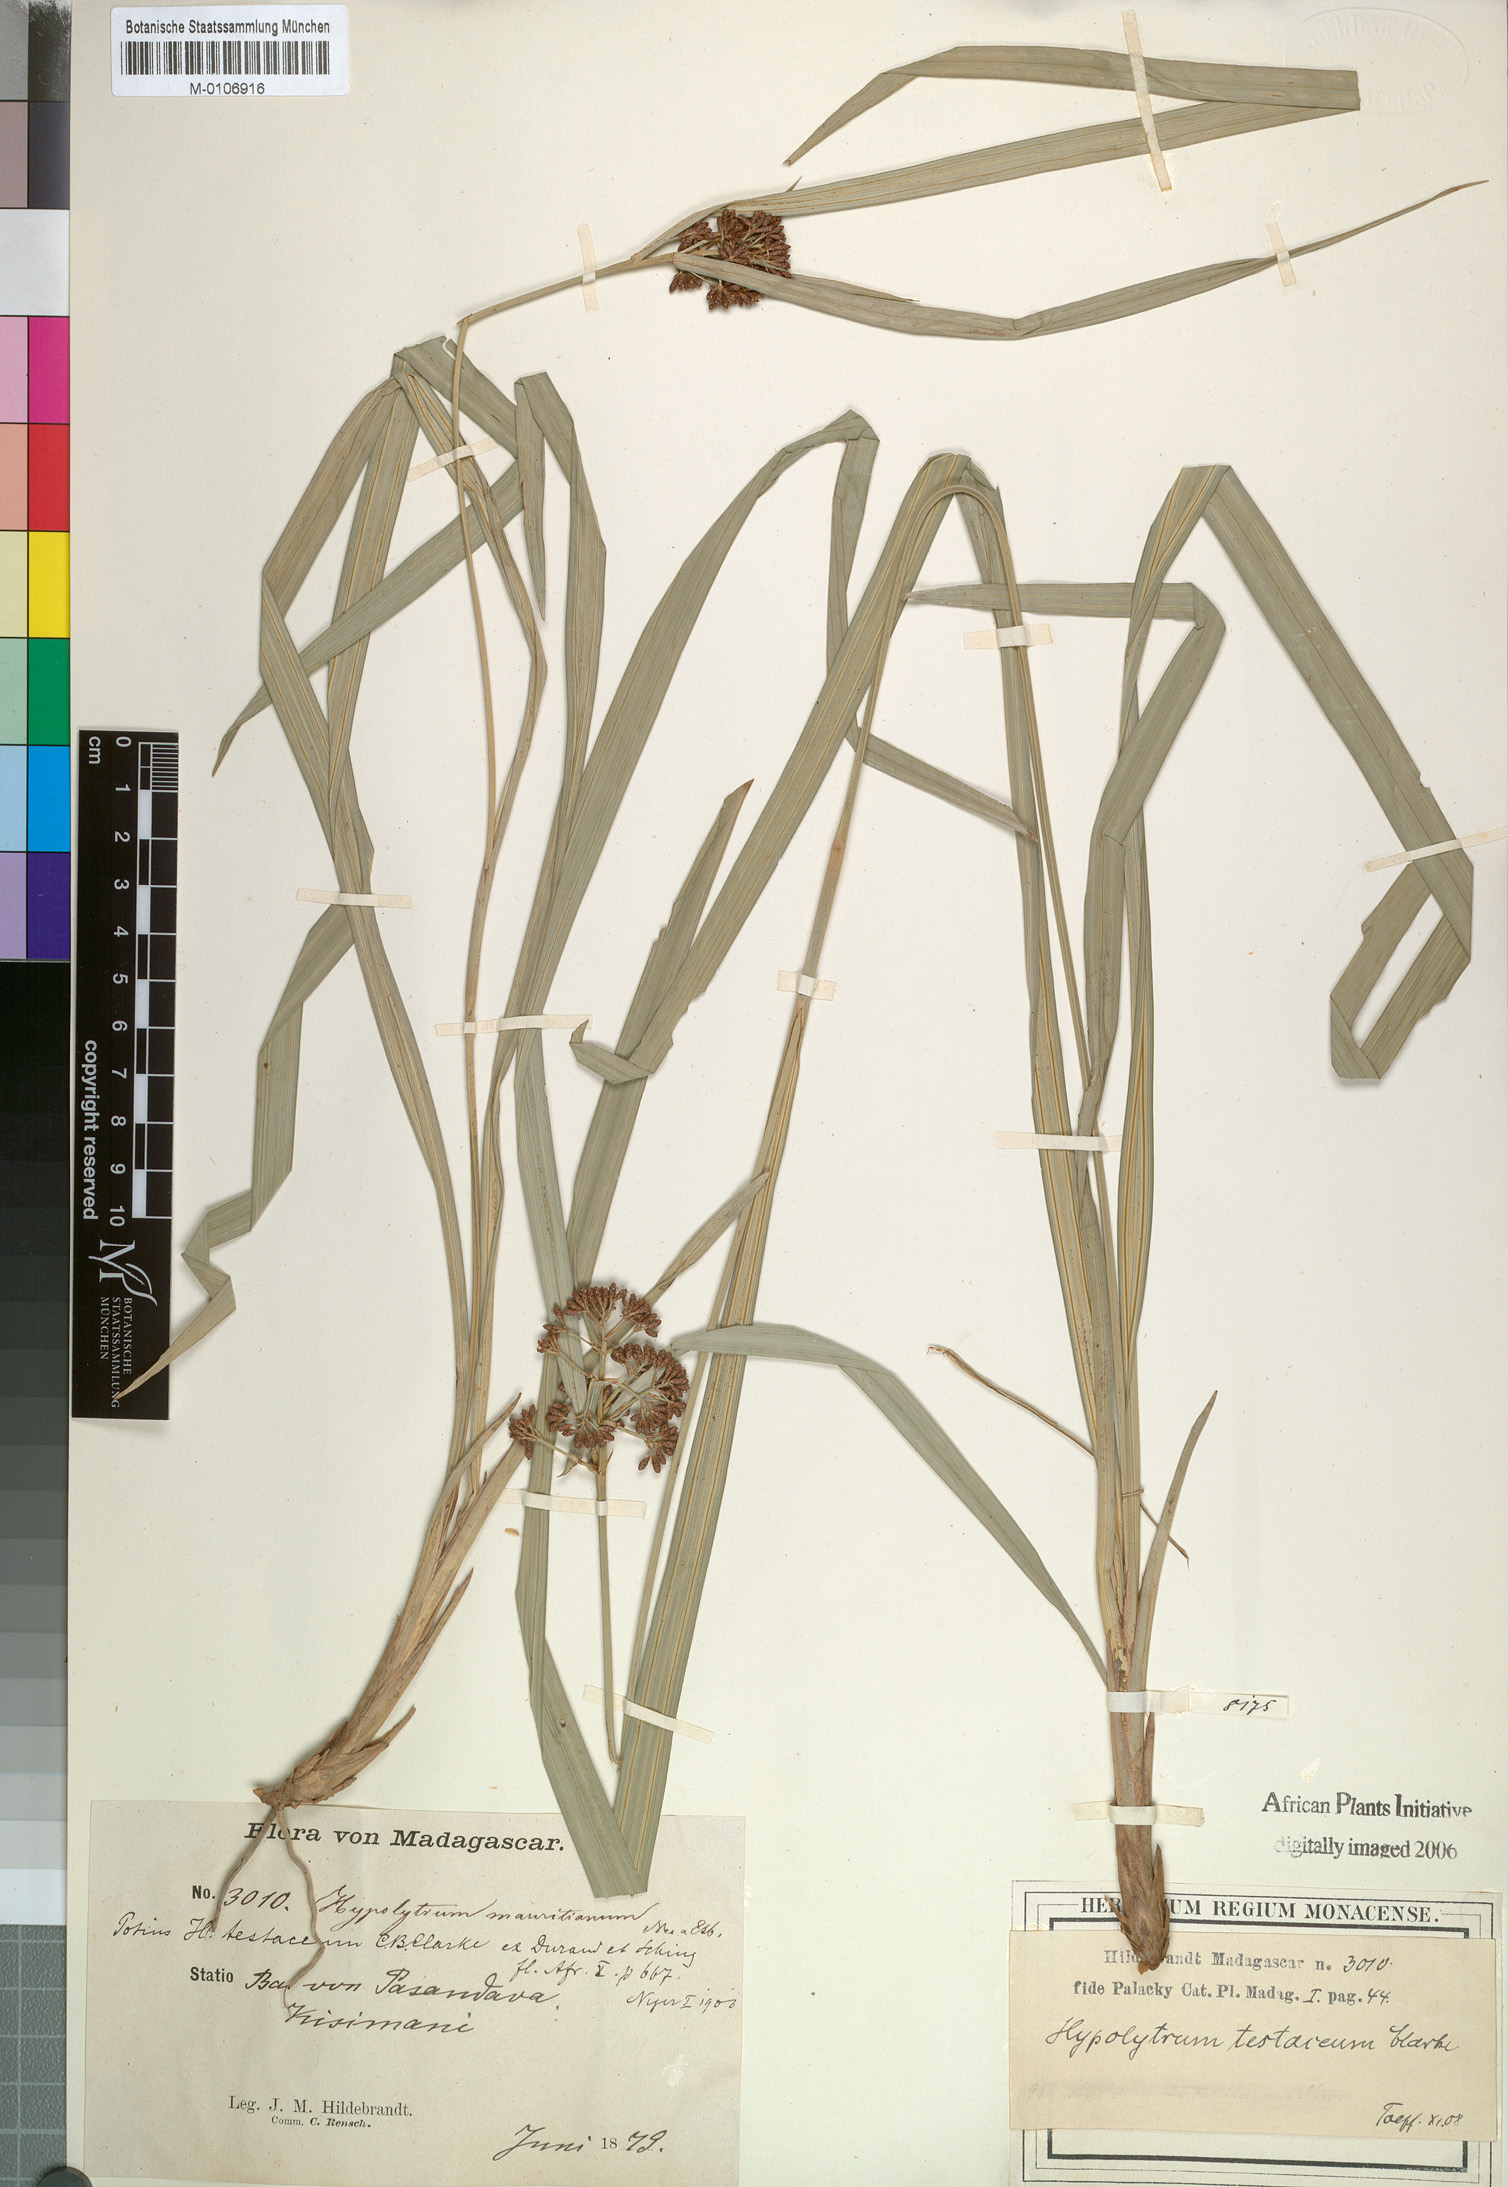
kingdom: Plantae
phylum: Tracheophyta
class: Liliopsida
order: Poales
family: Cyperaceae
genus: Hypolytrum
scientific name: Hypolytrum mauritianum
